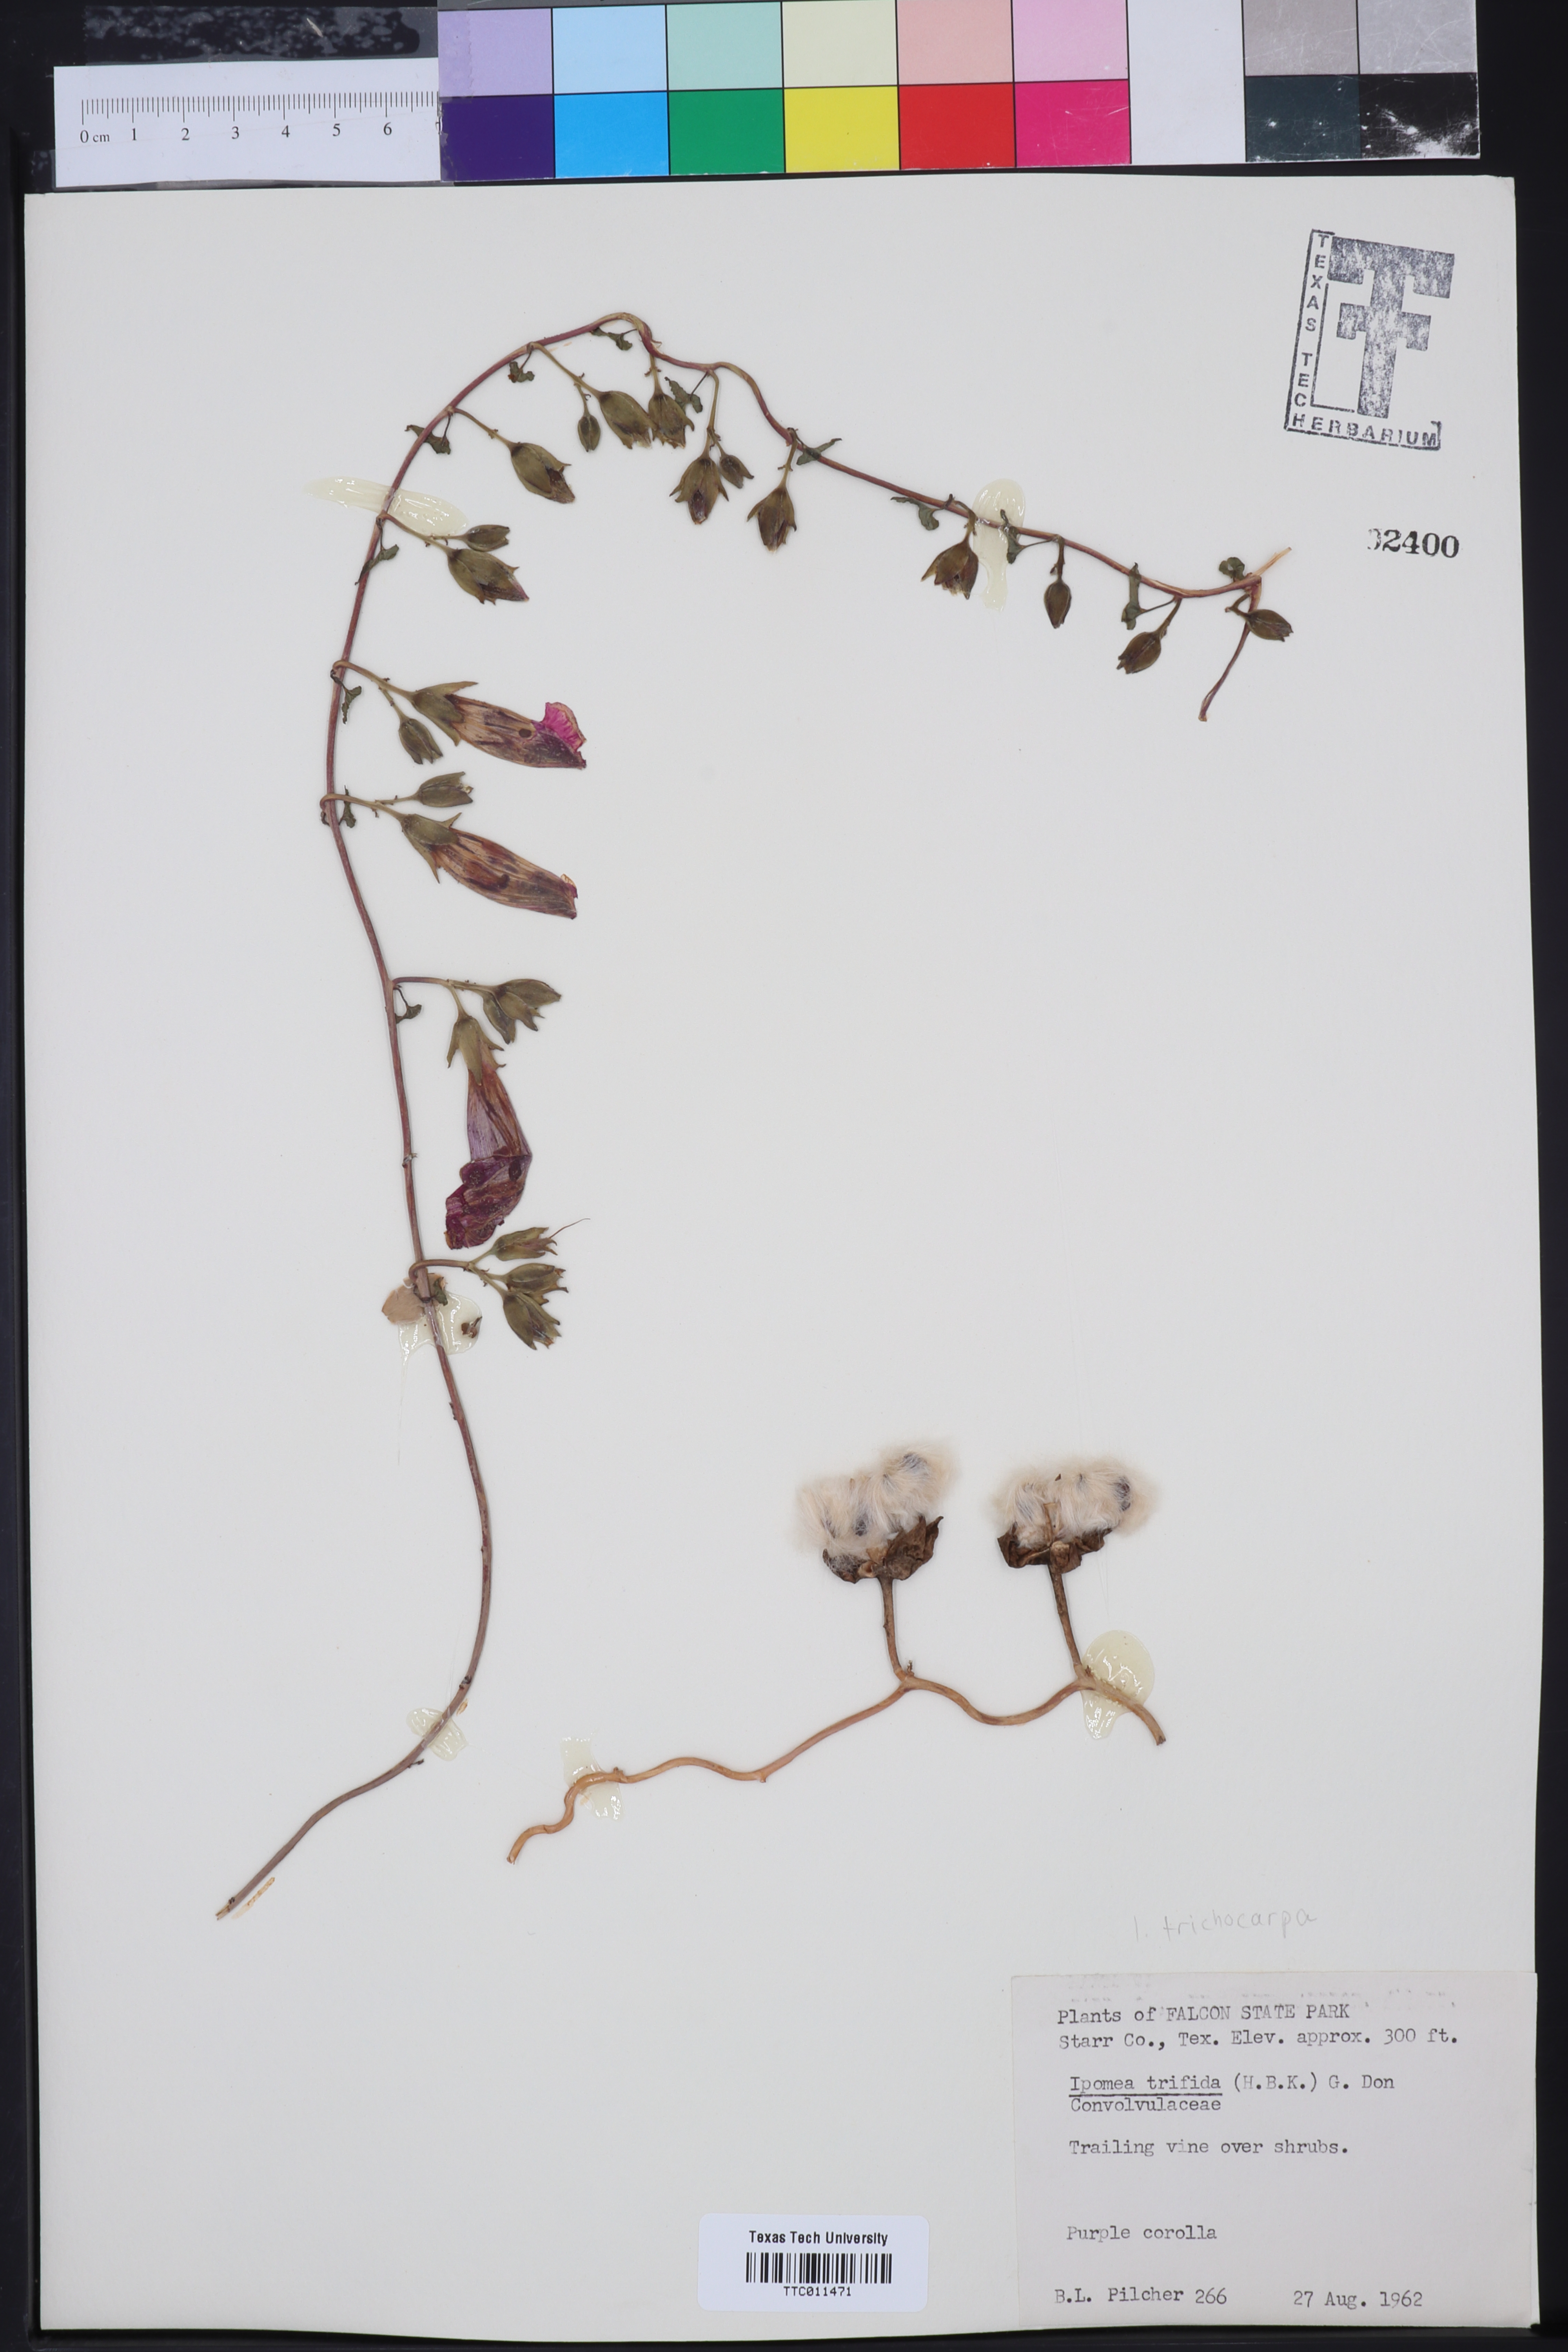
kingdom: Plantae
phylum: Tracheophyta
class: Magnoliopsida
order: Solanales
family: Convolvulaceae
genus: Ipomoea
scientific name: Ipomoea trifida
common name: Cotton morningglory
